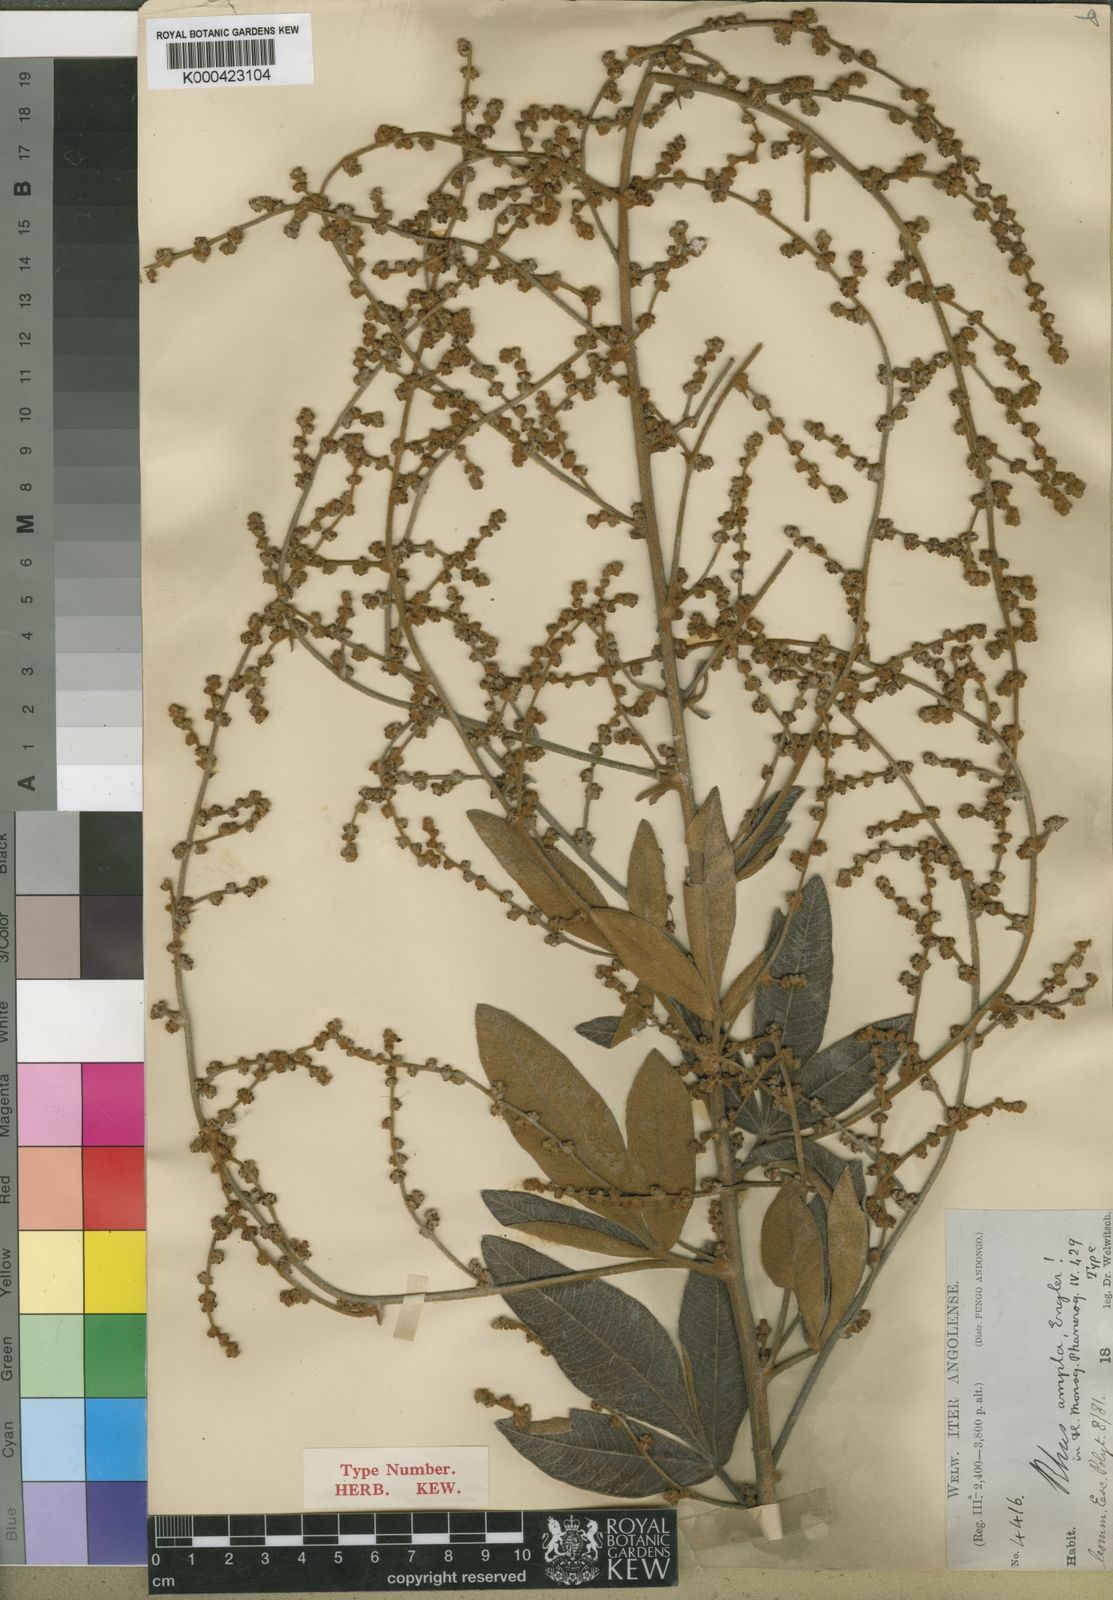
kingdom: Plantae
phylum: Tracheophyta
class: Magnoliopsida
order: Sapindales
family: Anacardiaceae
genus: Searsia
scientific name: Searsia kirkii
